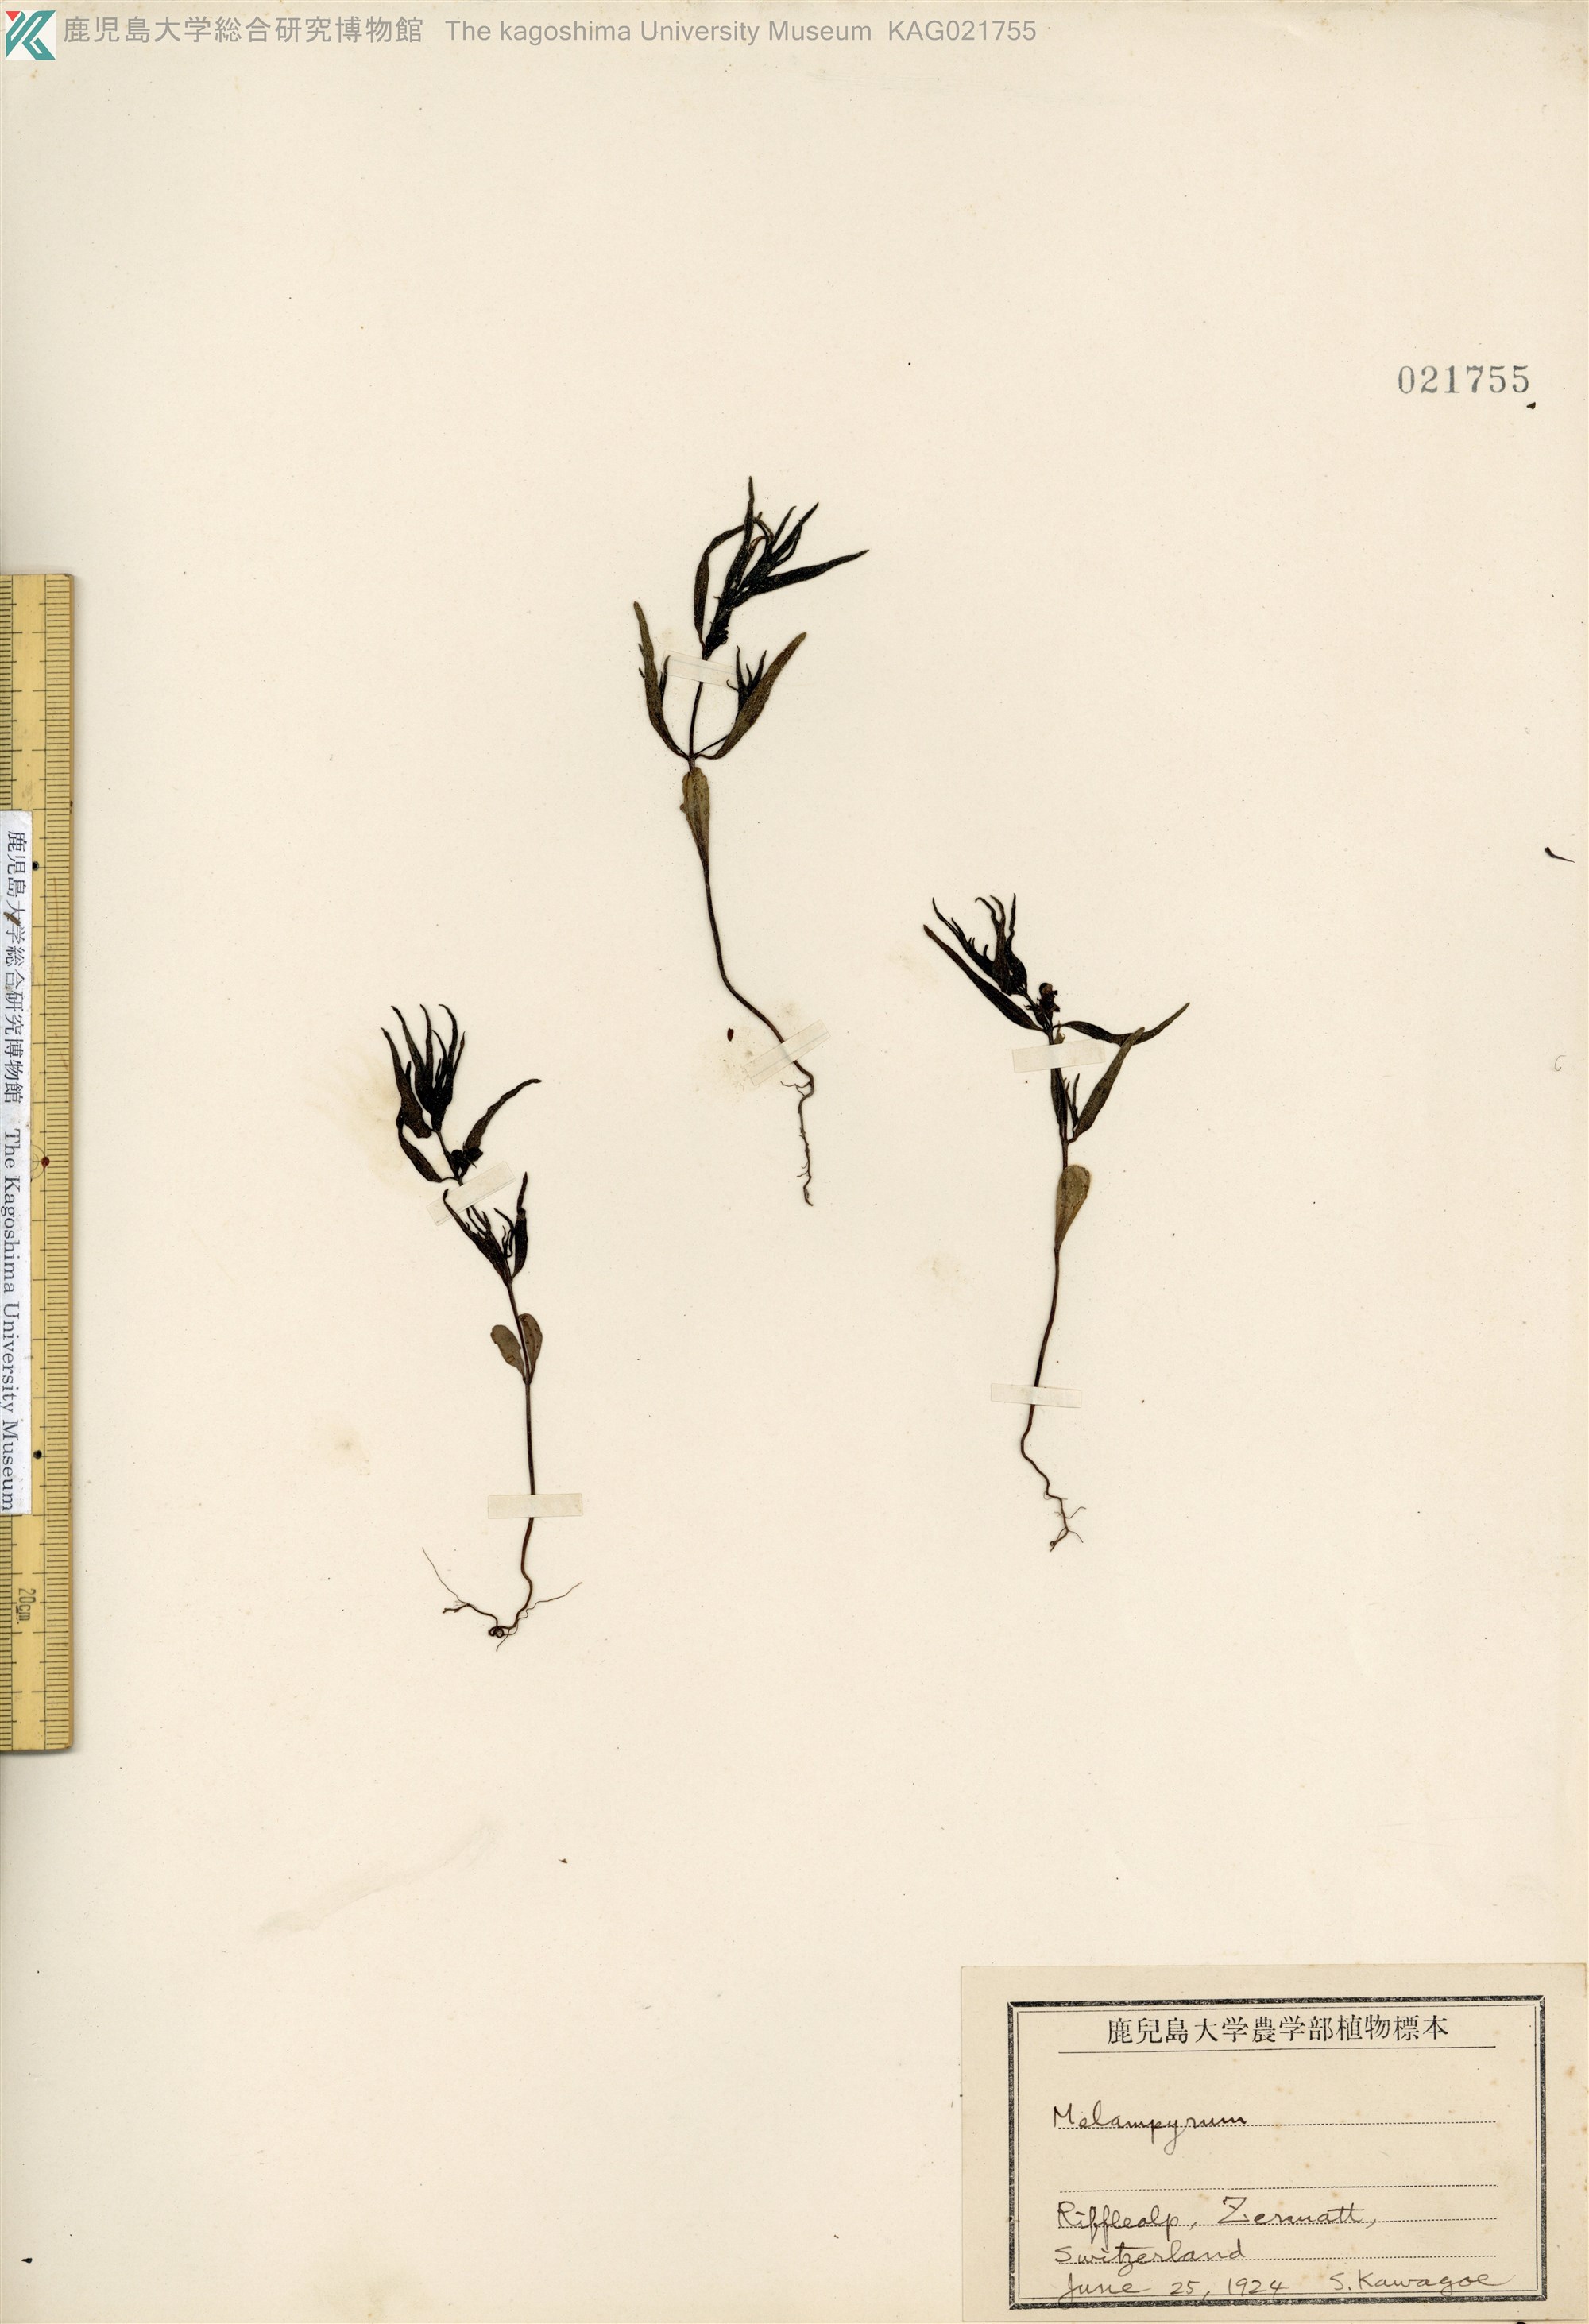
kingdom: Plantae
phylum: Tracheophyta
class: Magnoliopsida
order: Lamiales
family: Orobanchaceae
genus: Melampyrum
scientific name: Melampyrum
